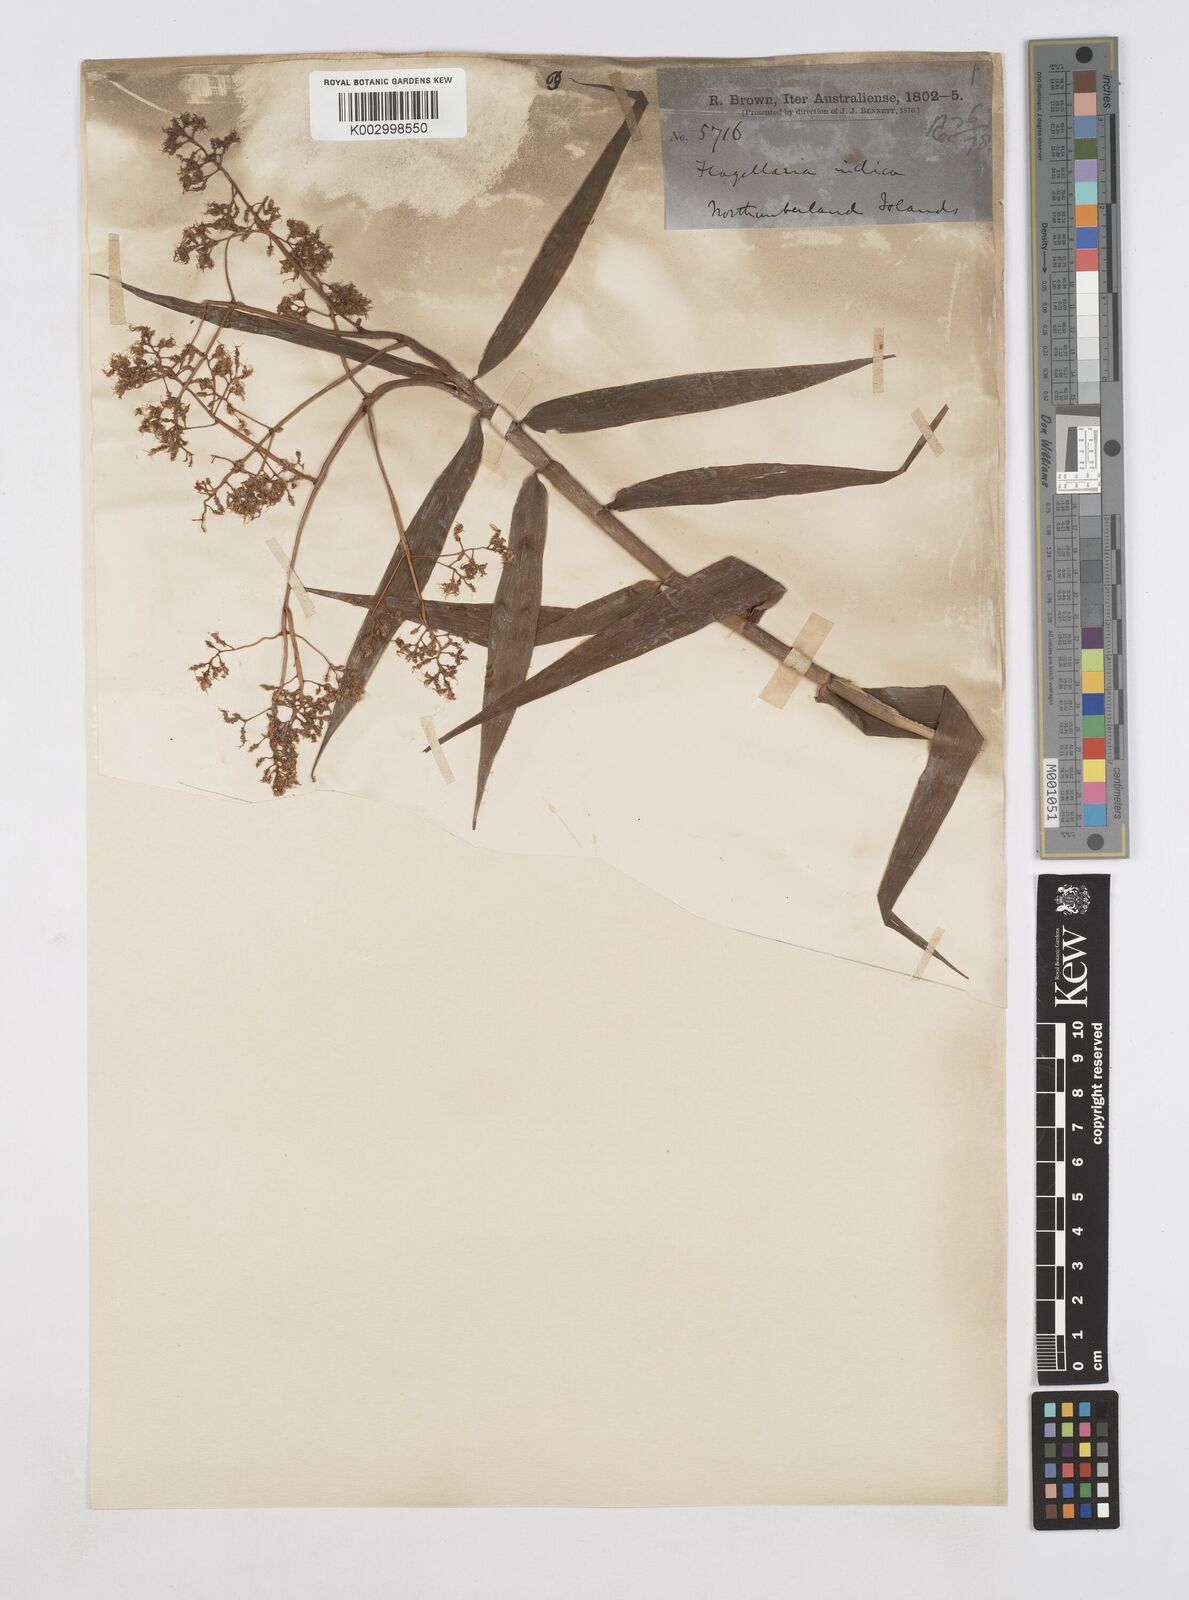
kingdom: Plantae
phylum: Tracheophyta
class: Liliopsida
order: Poales
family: Flagellariaceae
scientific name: Flagellariaceae
